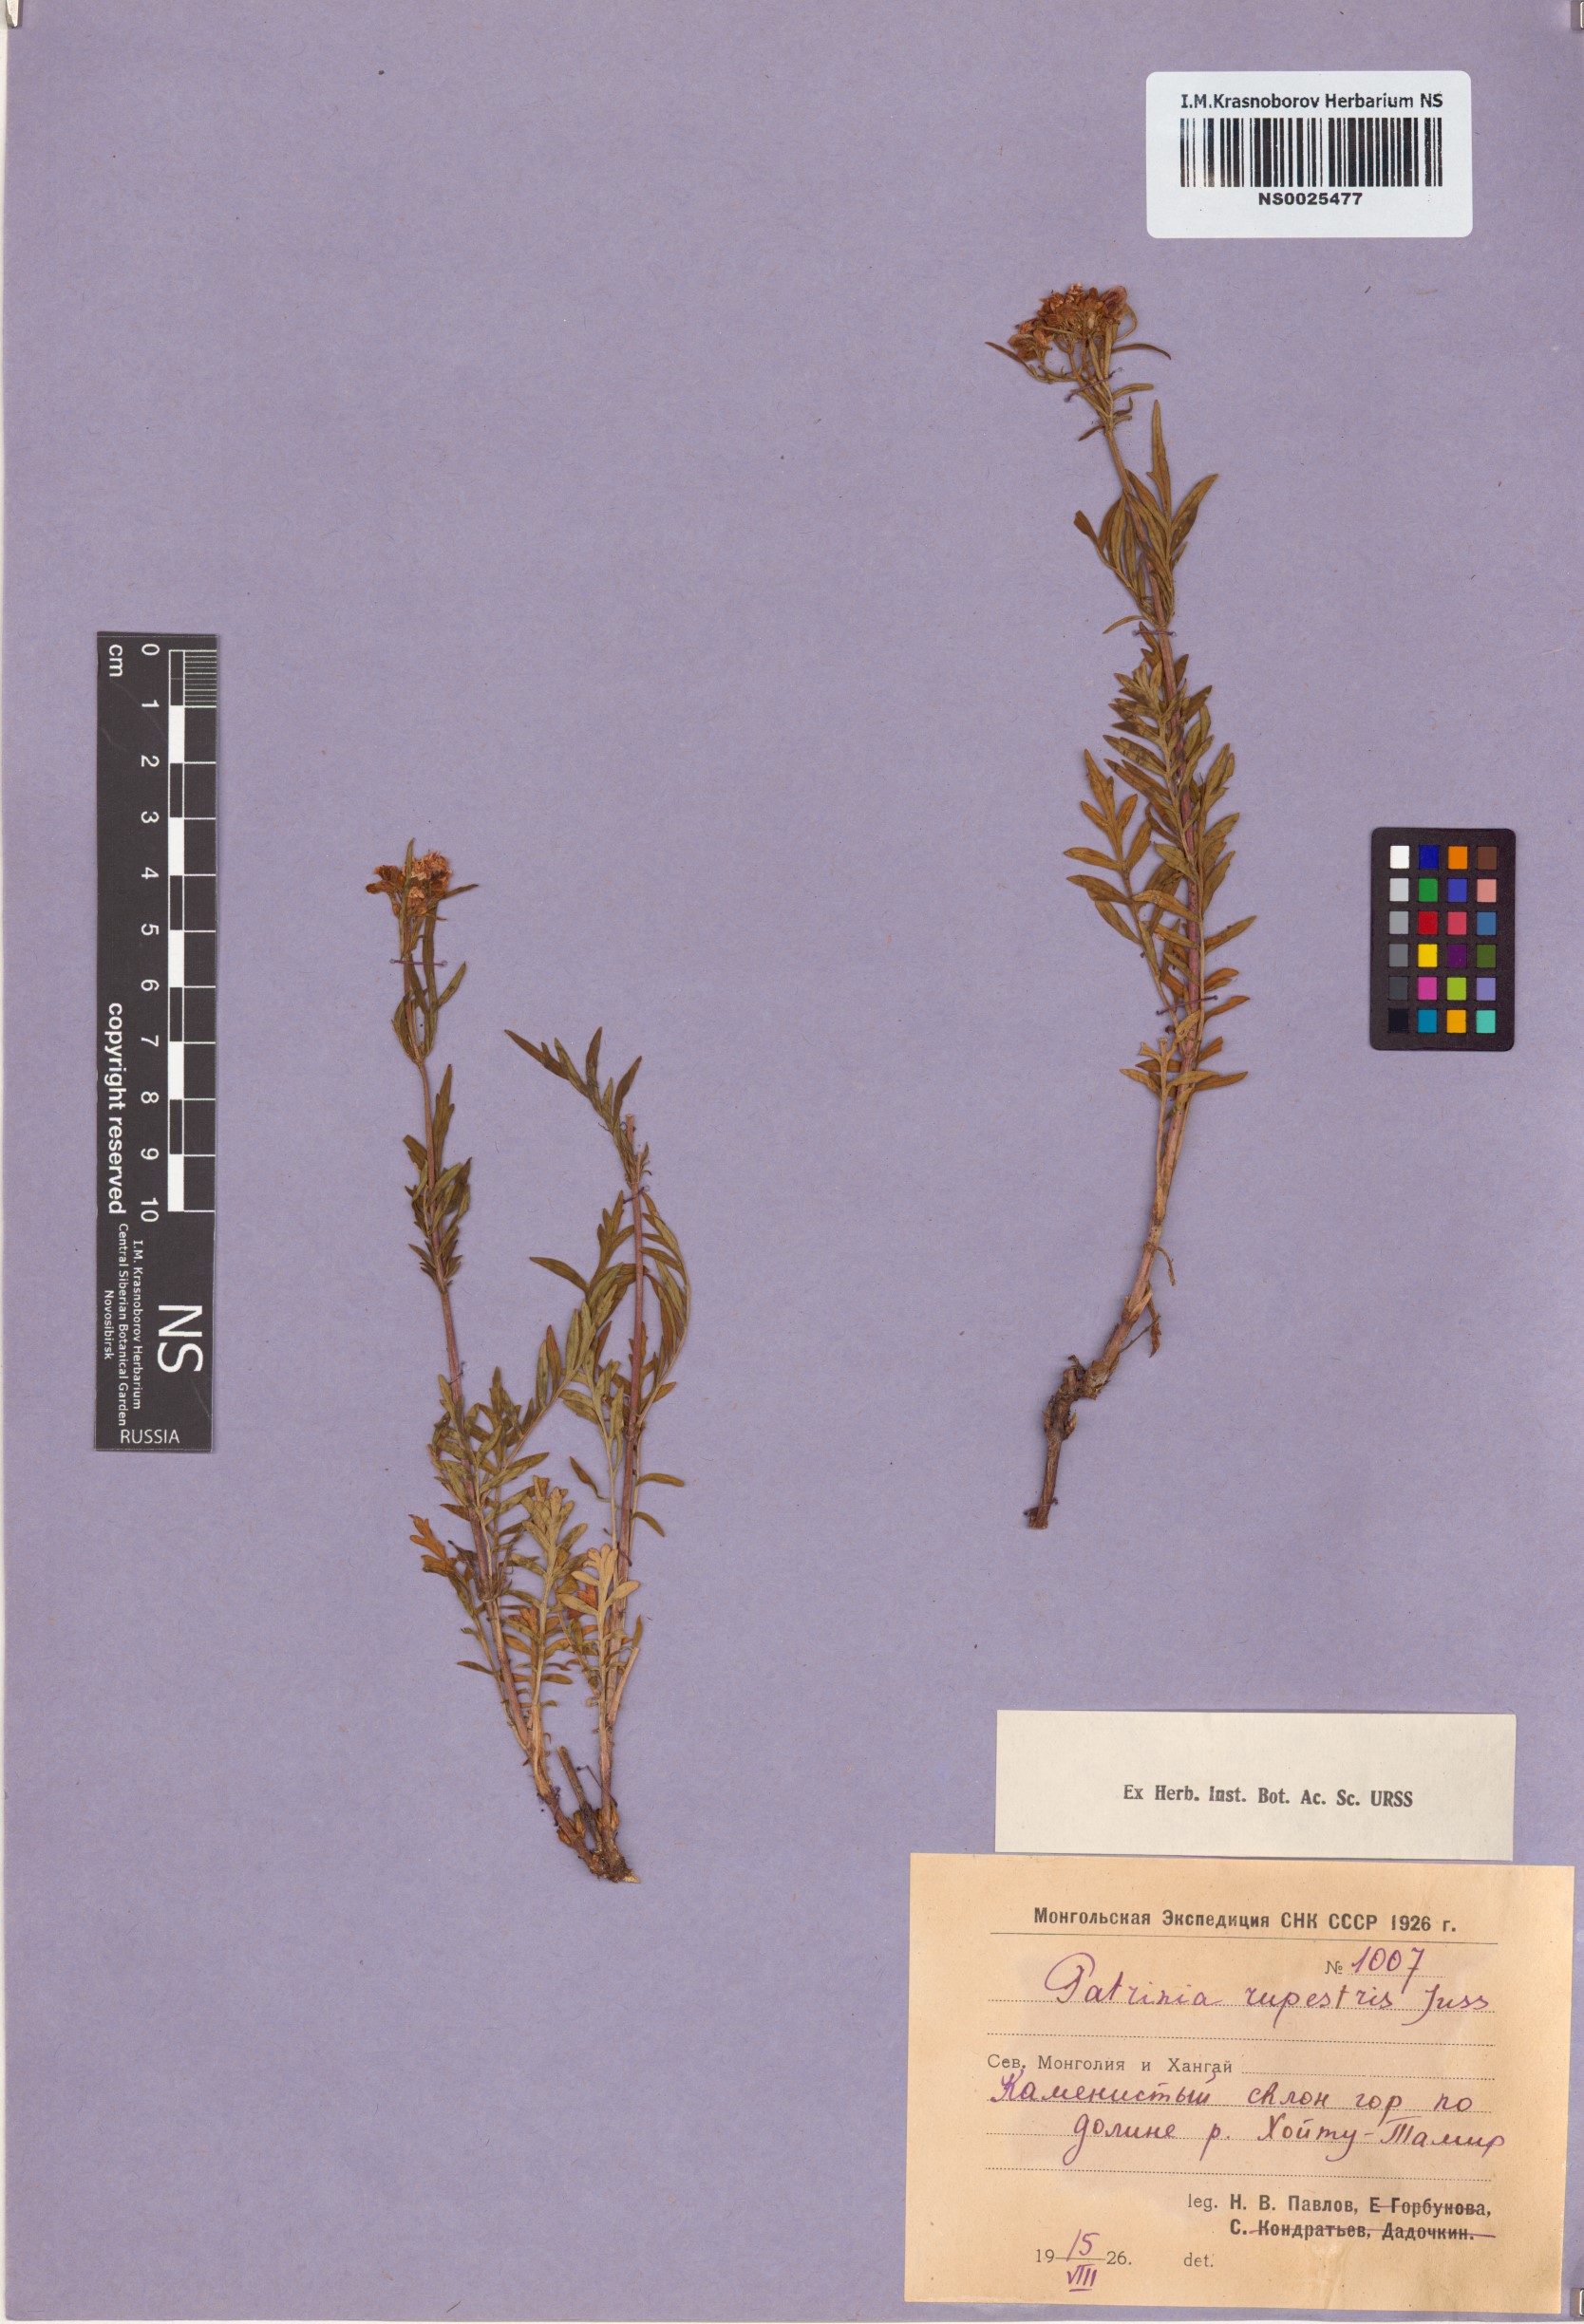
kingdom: Plantae
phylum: Tracheophyta
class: Magnoliopsida
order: Dipsacales
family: Caprifoliaceae
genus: Patrinia
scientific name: Patrinia rupestris
